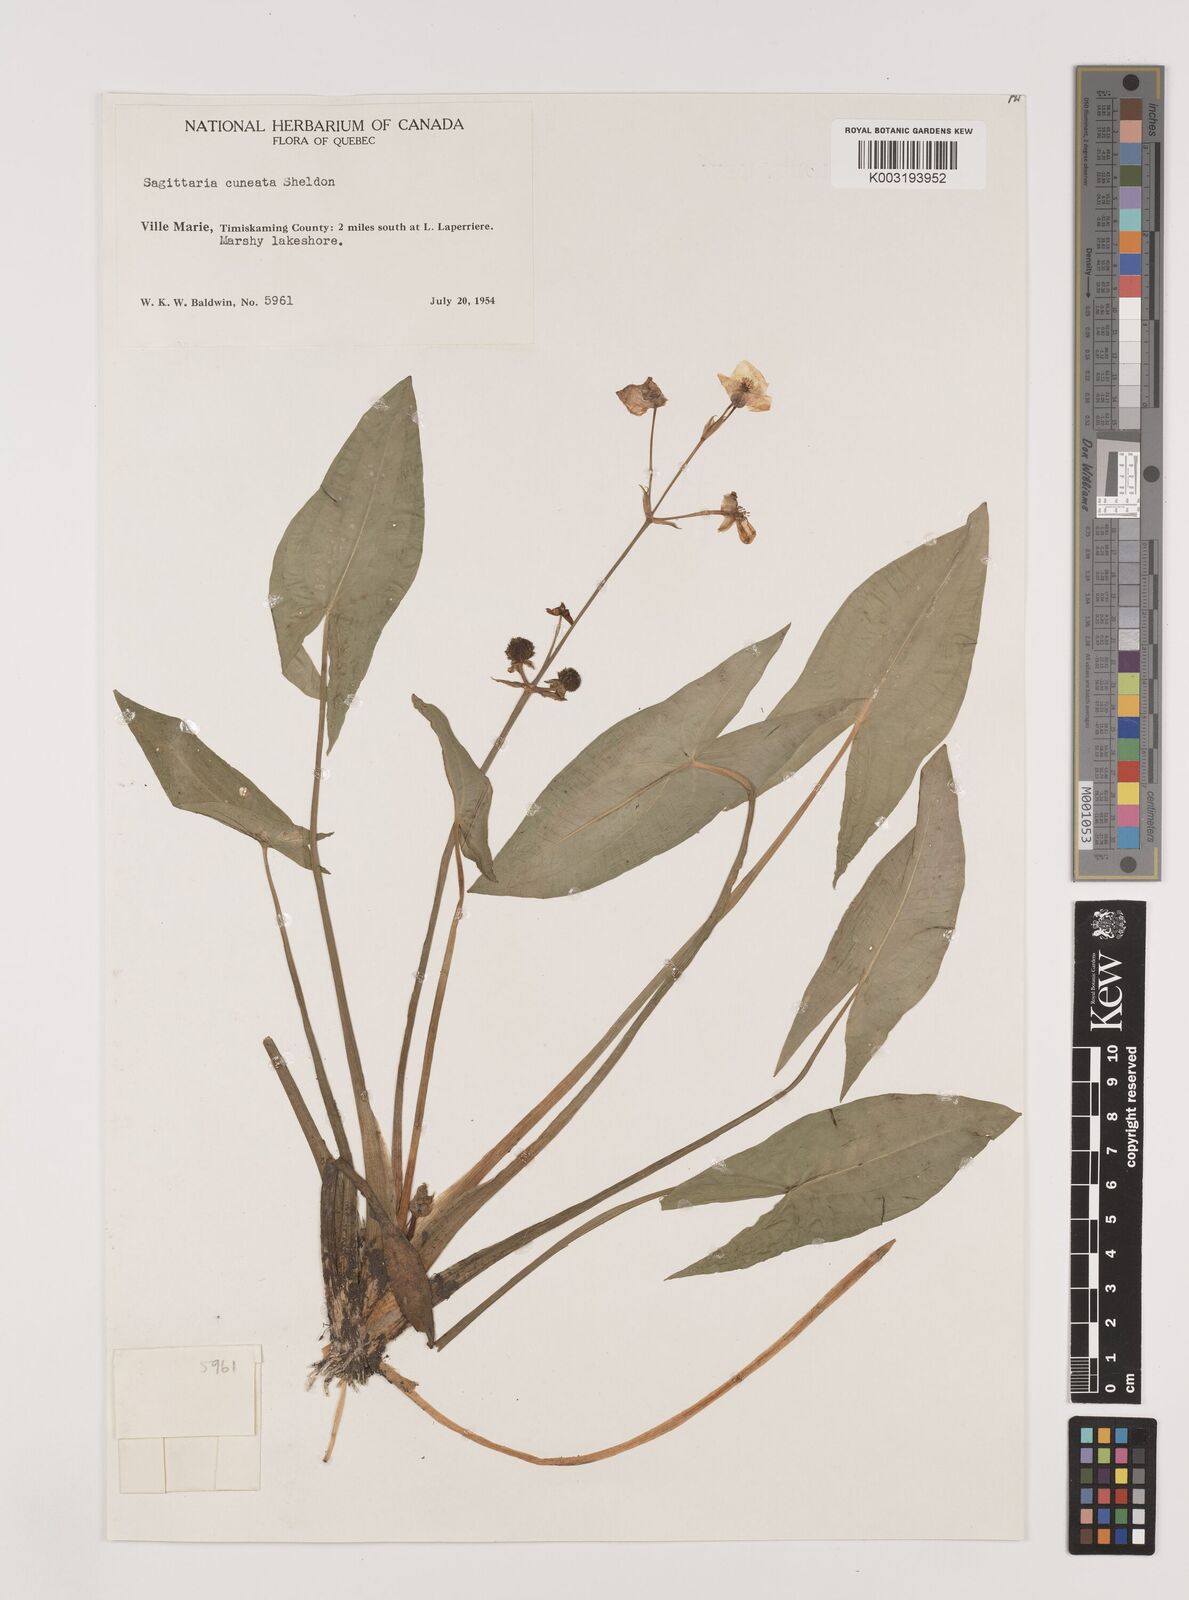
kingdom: Plantae
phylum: Tracheophyta
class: Liliopsida
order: Alismatales
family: Alismataceae
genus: Sagittaria
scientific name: Sagittaria cuneata
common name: Northern arrowhead
